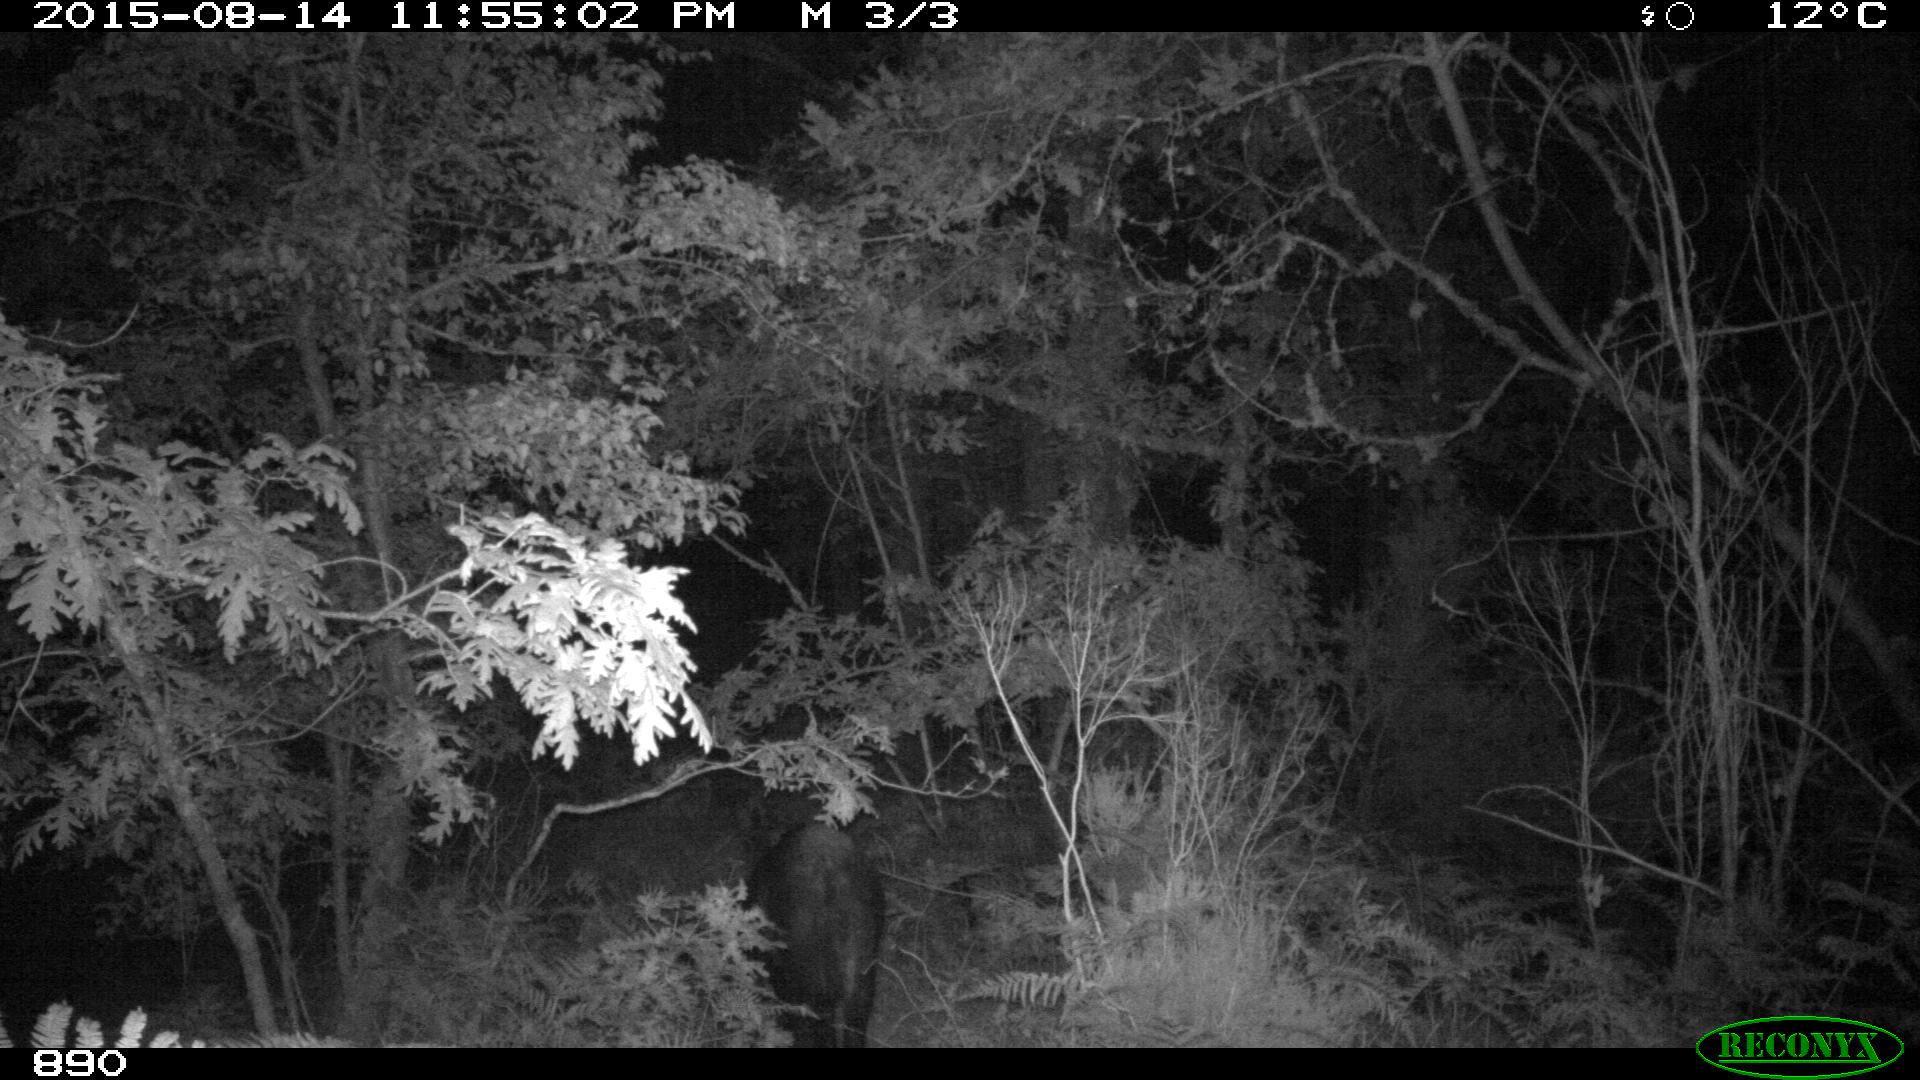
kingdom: Animalia
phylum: Chordata
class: Mammalia
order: Artiodactyla
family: Suidae
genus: Sus
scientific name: Sus scrofa
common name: Wild boar
